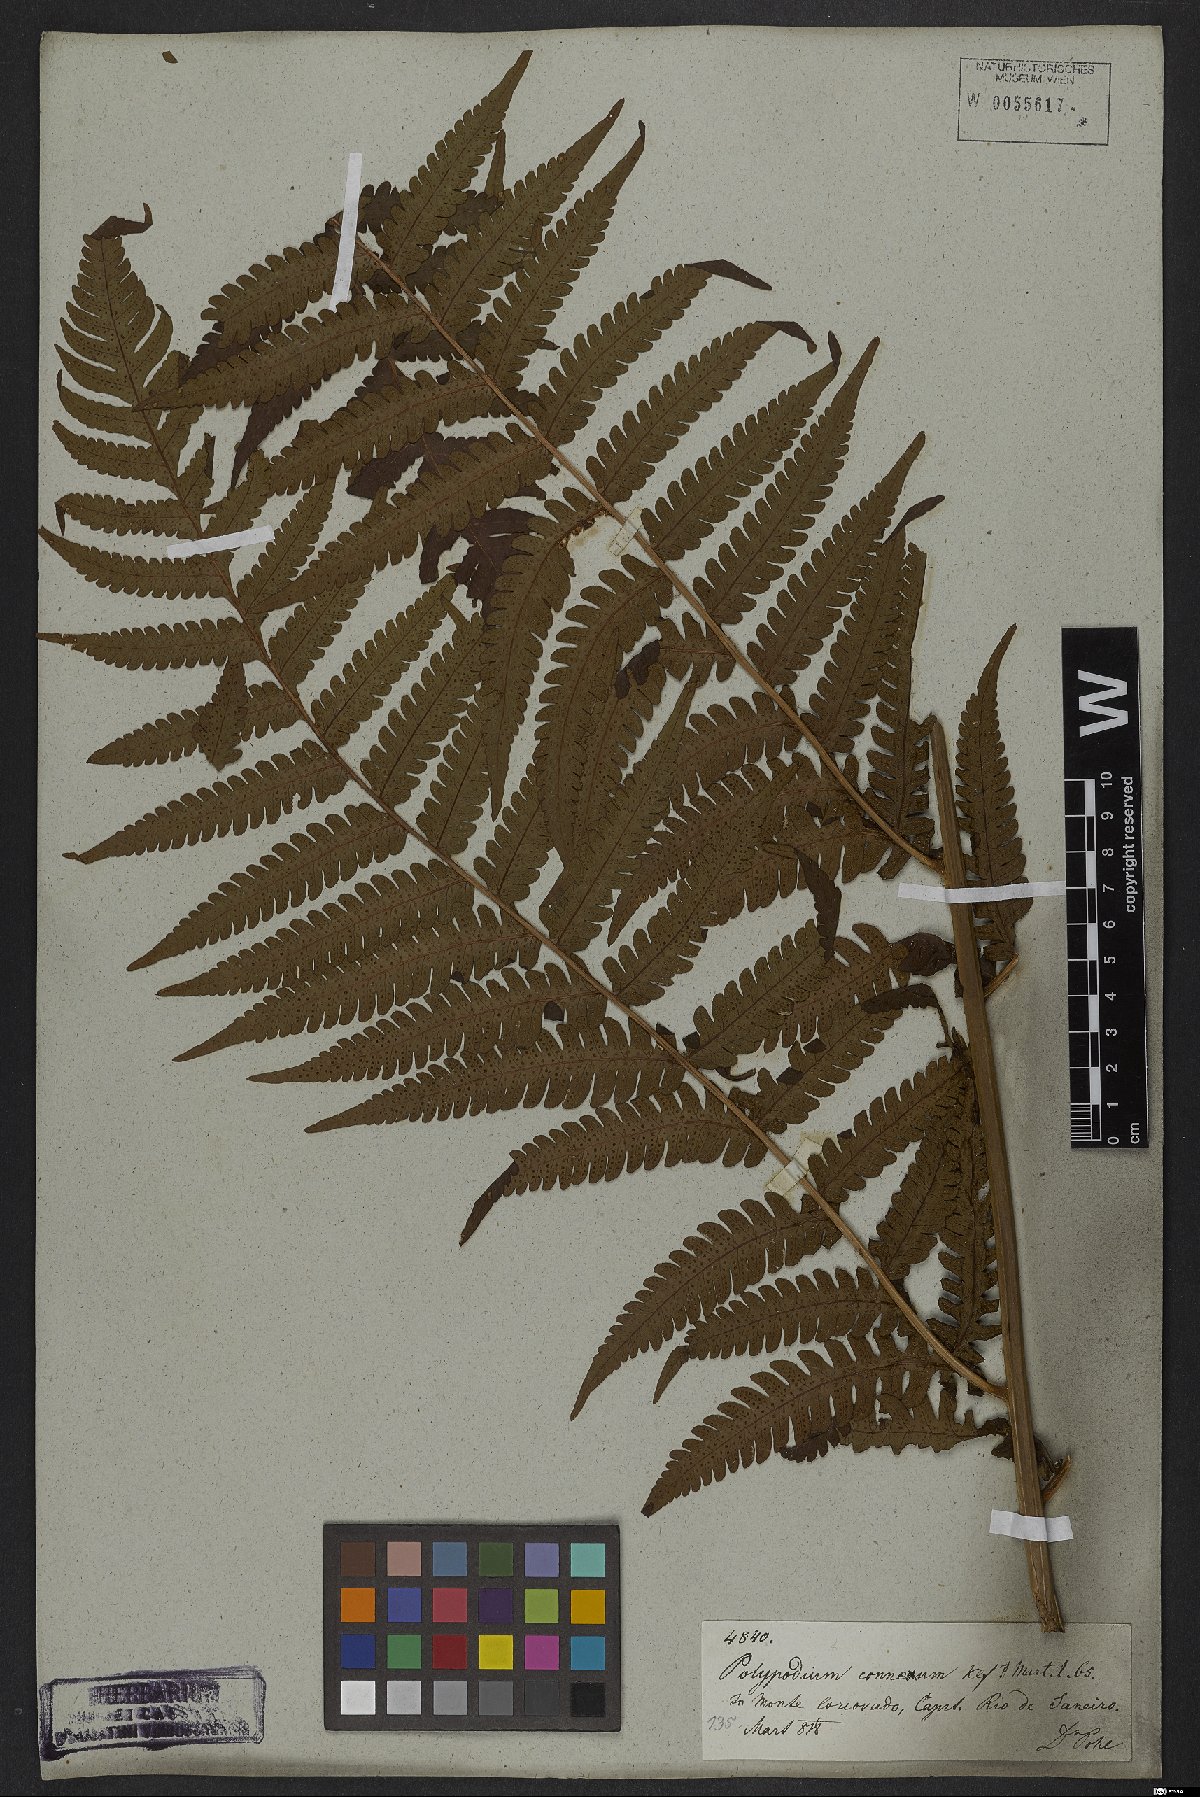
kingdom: Plantae
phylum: Tracheophyta
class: Polypodiopsida
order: Polypodiales
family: Dryopteridaceae
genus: Megalastrum
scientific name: Megalastrum connexum
